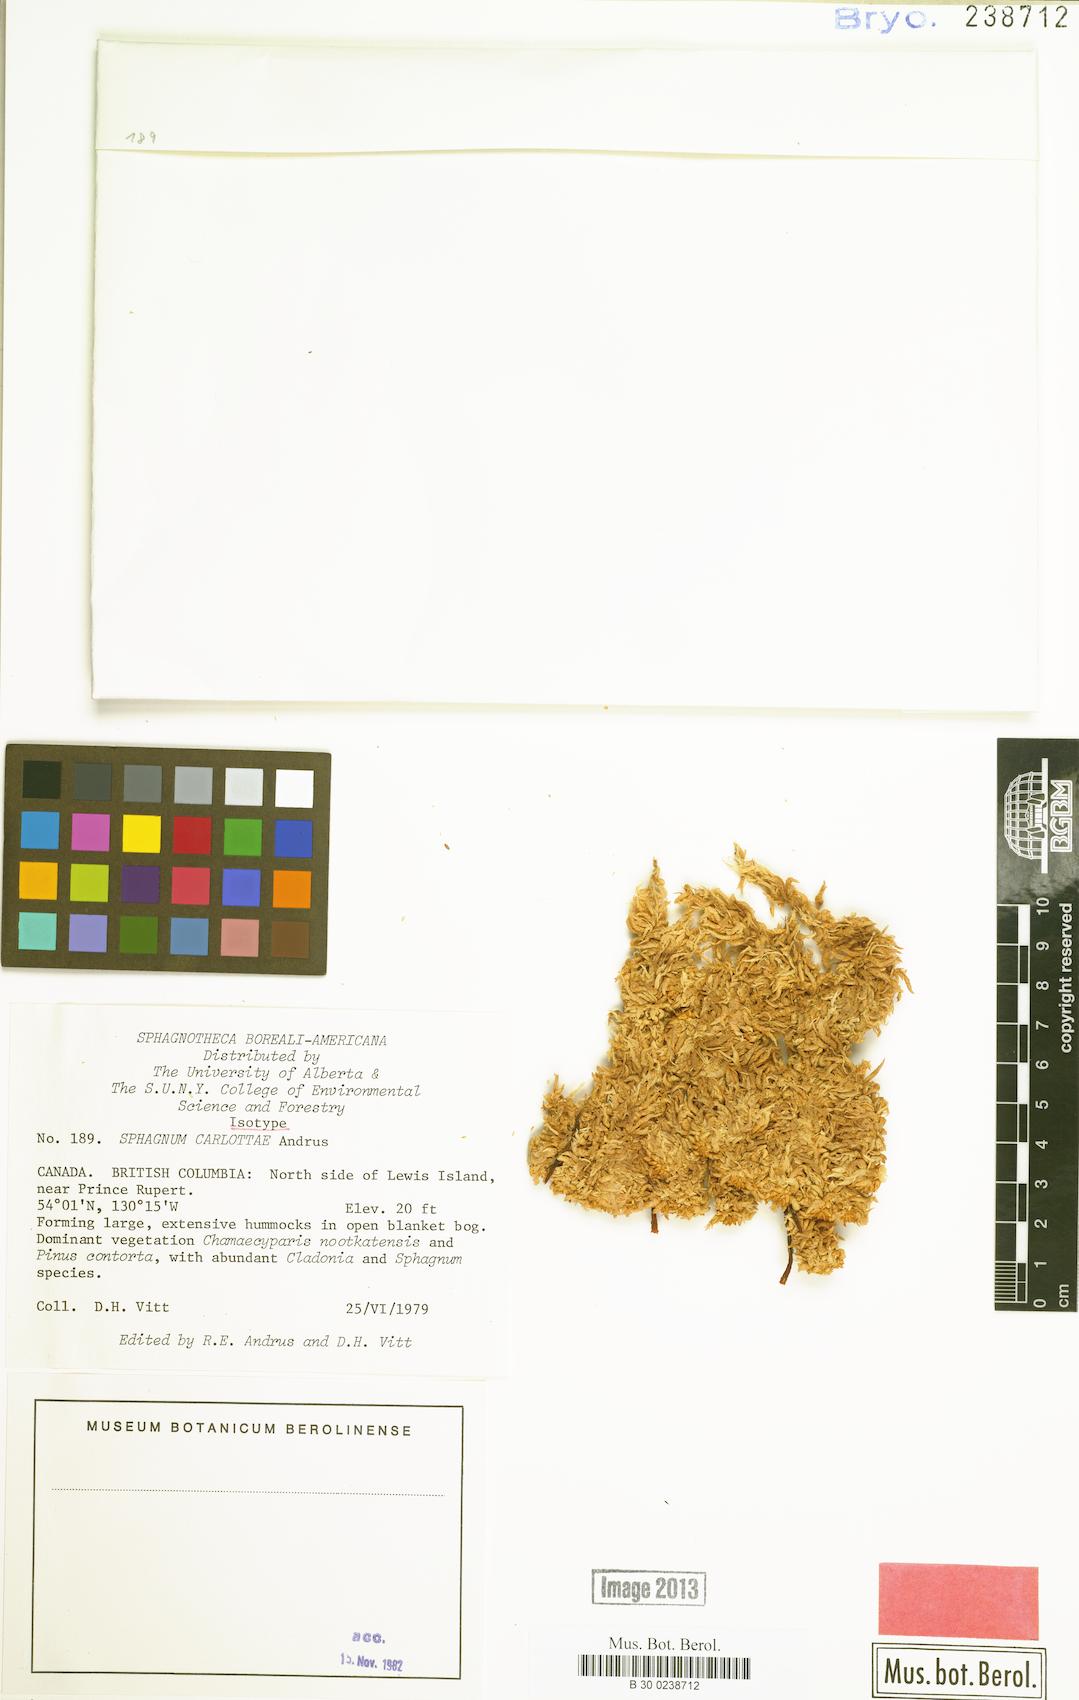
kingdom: Plantae
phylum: Bryophyta
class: Sphagnopsida
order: Sphagnales
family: Sphagnaceae
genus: Sphagnum
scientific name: Sphagnum austinii
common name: Austin's peat moss
